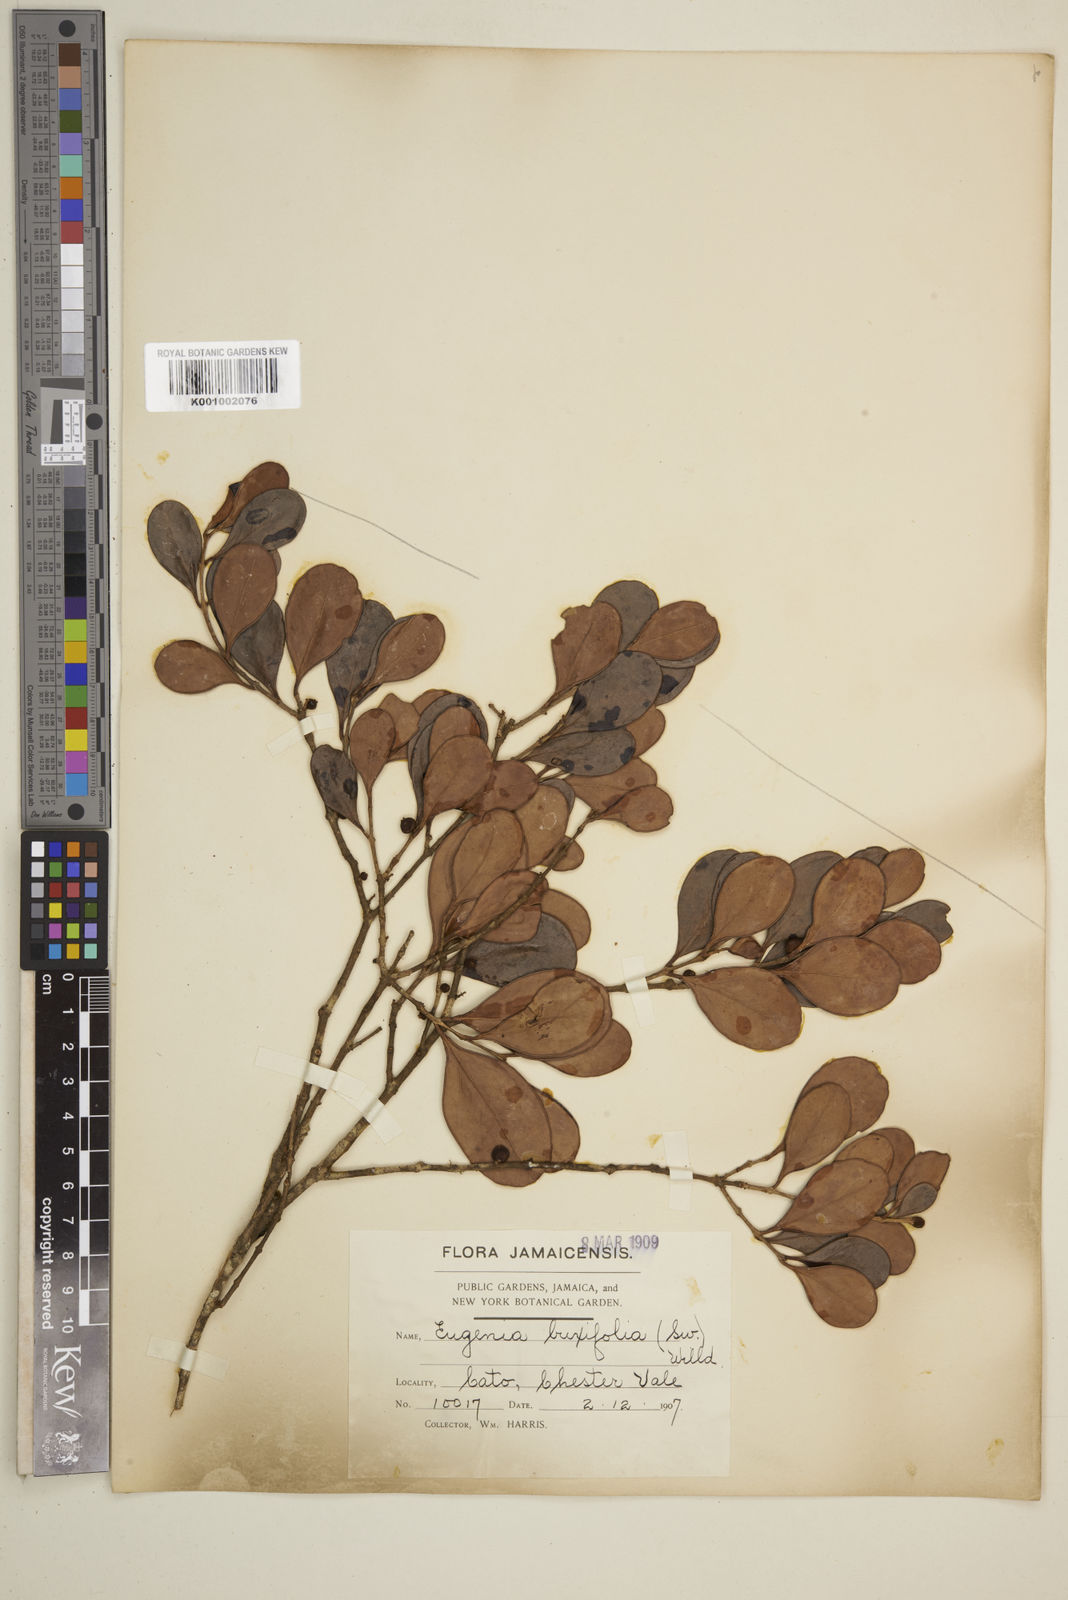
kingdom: Plantae
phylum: Tracheophyta
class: Magnoliopsida
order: Myrtales
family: Myrtaceae
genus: Eugenia
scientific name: Eugenia buxifolia
